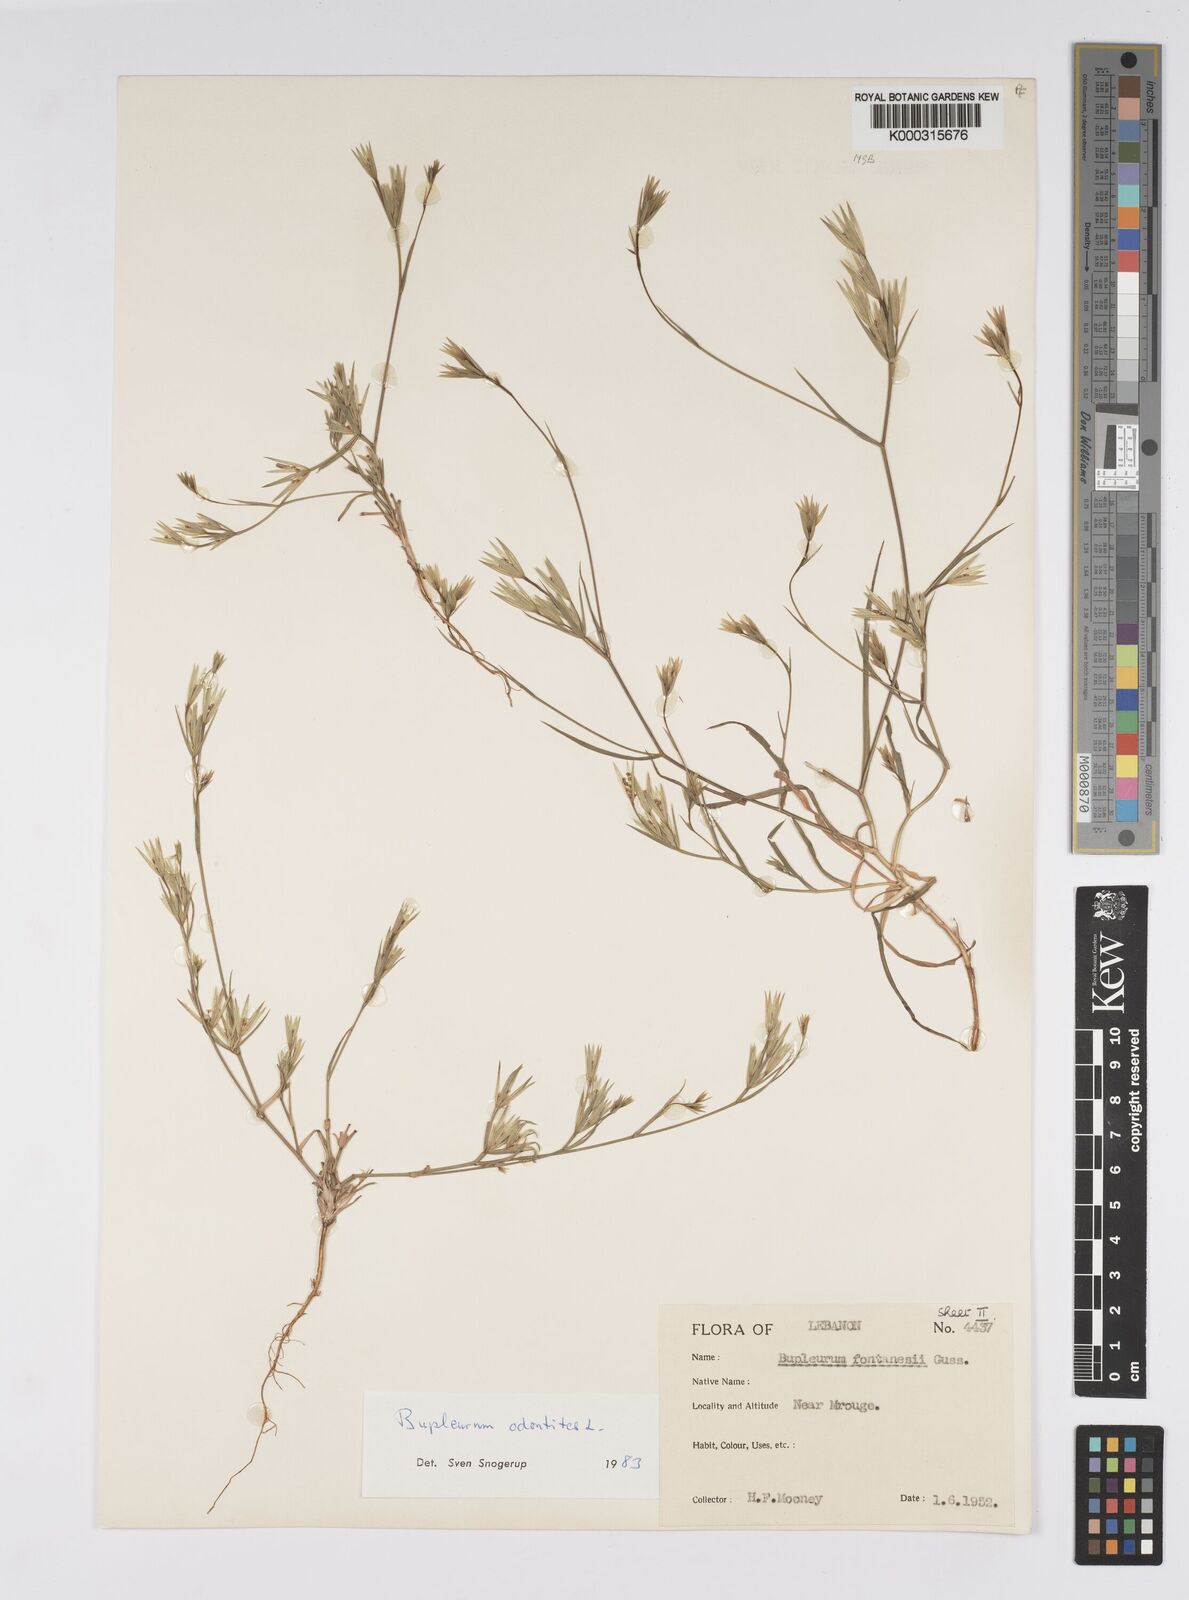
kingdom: Plantae
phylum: Tracheophyta
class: Magnoliopsida
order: Apiales
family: Apiaceae
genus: Bupleurum
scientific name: Bupleurum odontites
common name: Narrowleaf thorow wax
